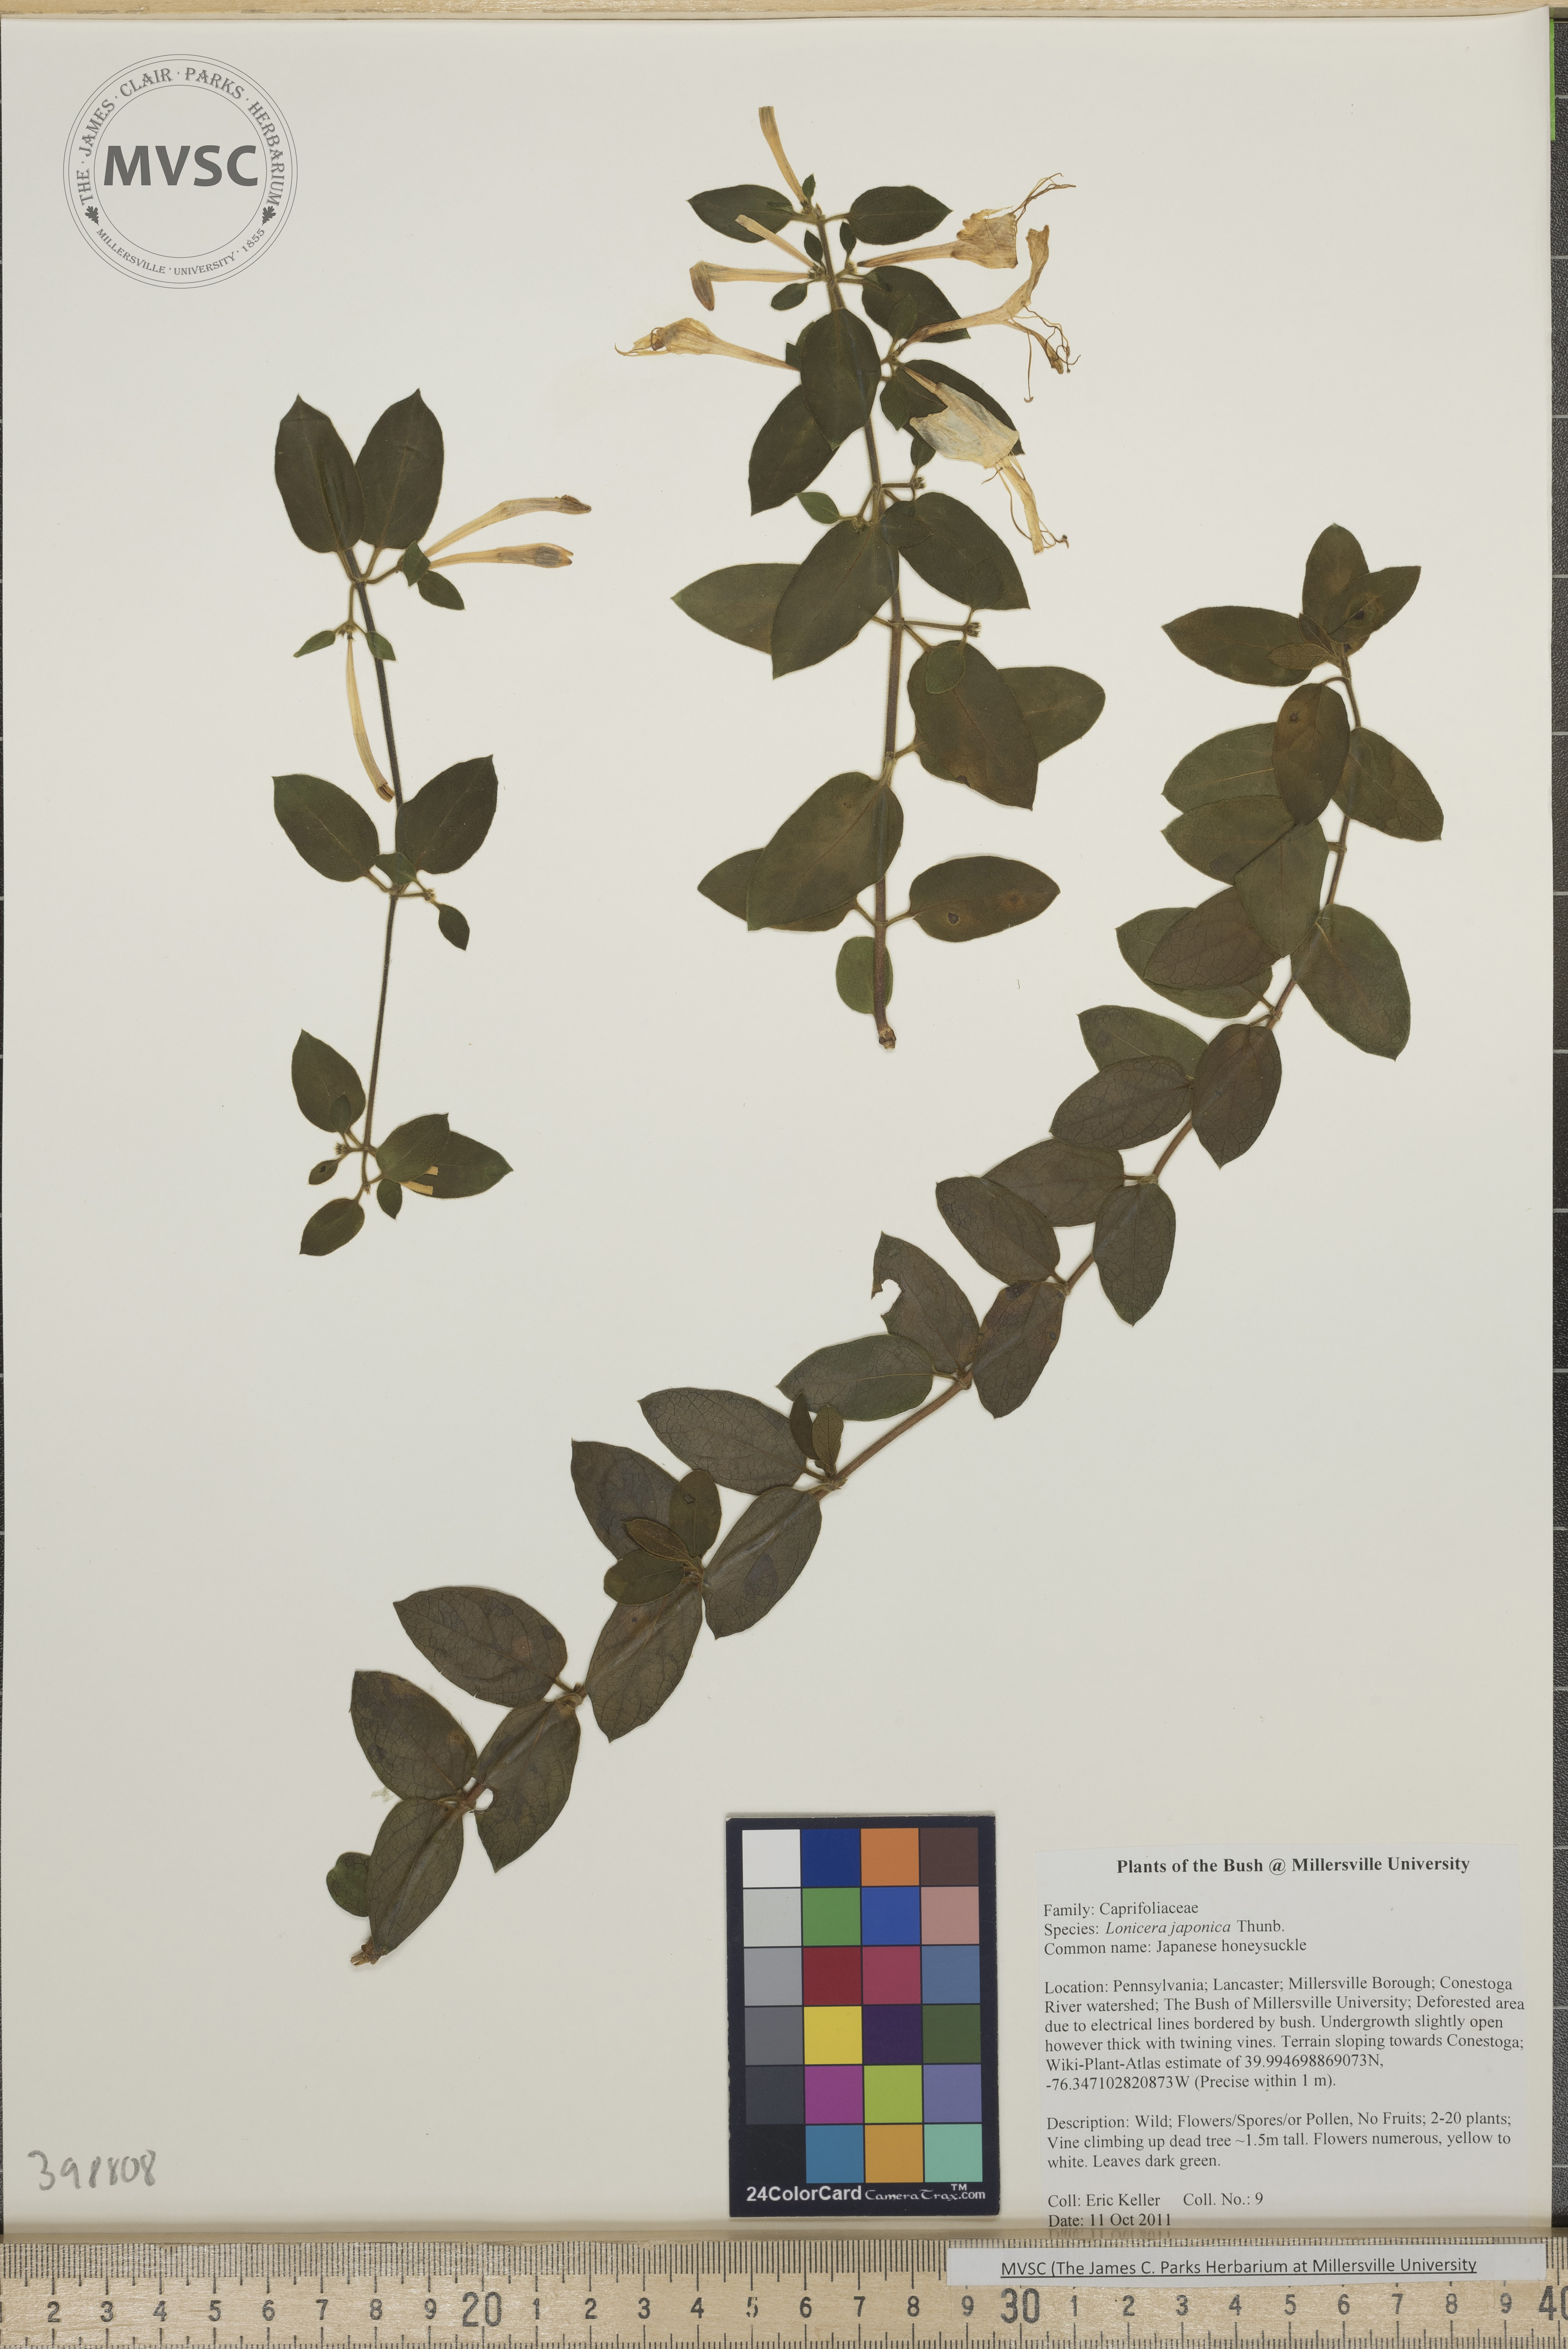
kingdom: Plantae
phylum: Tracheophyta
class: Magnoliopsida
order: Dipsacales
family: Caprifoliaceae
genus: Lonicera
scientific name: Lonicera japonica
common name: Japanese honeysuckle
